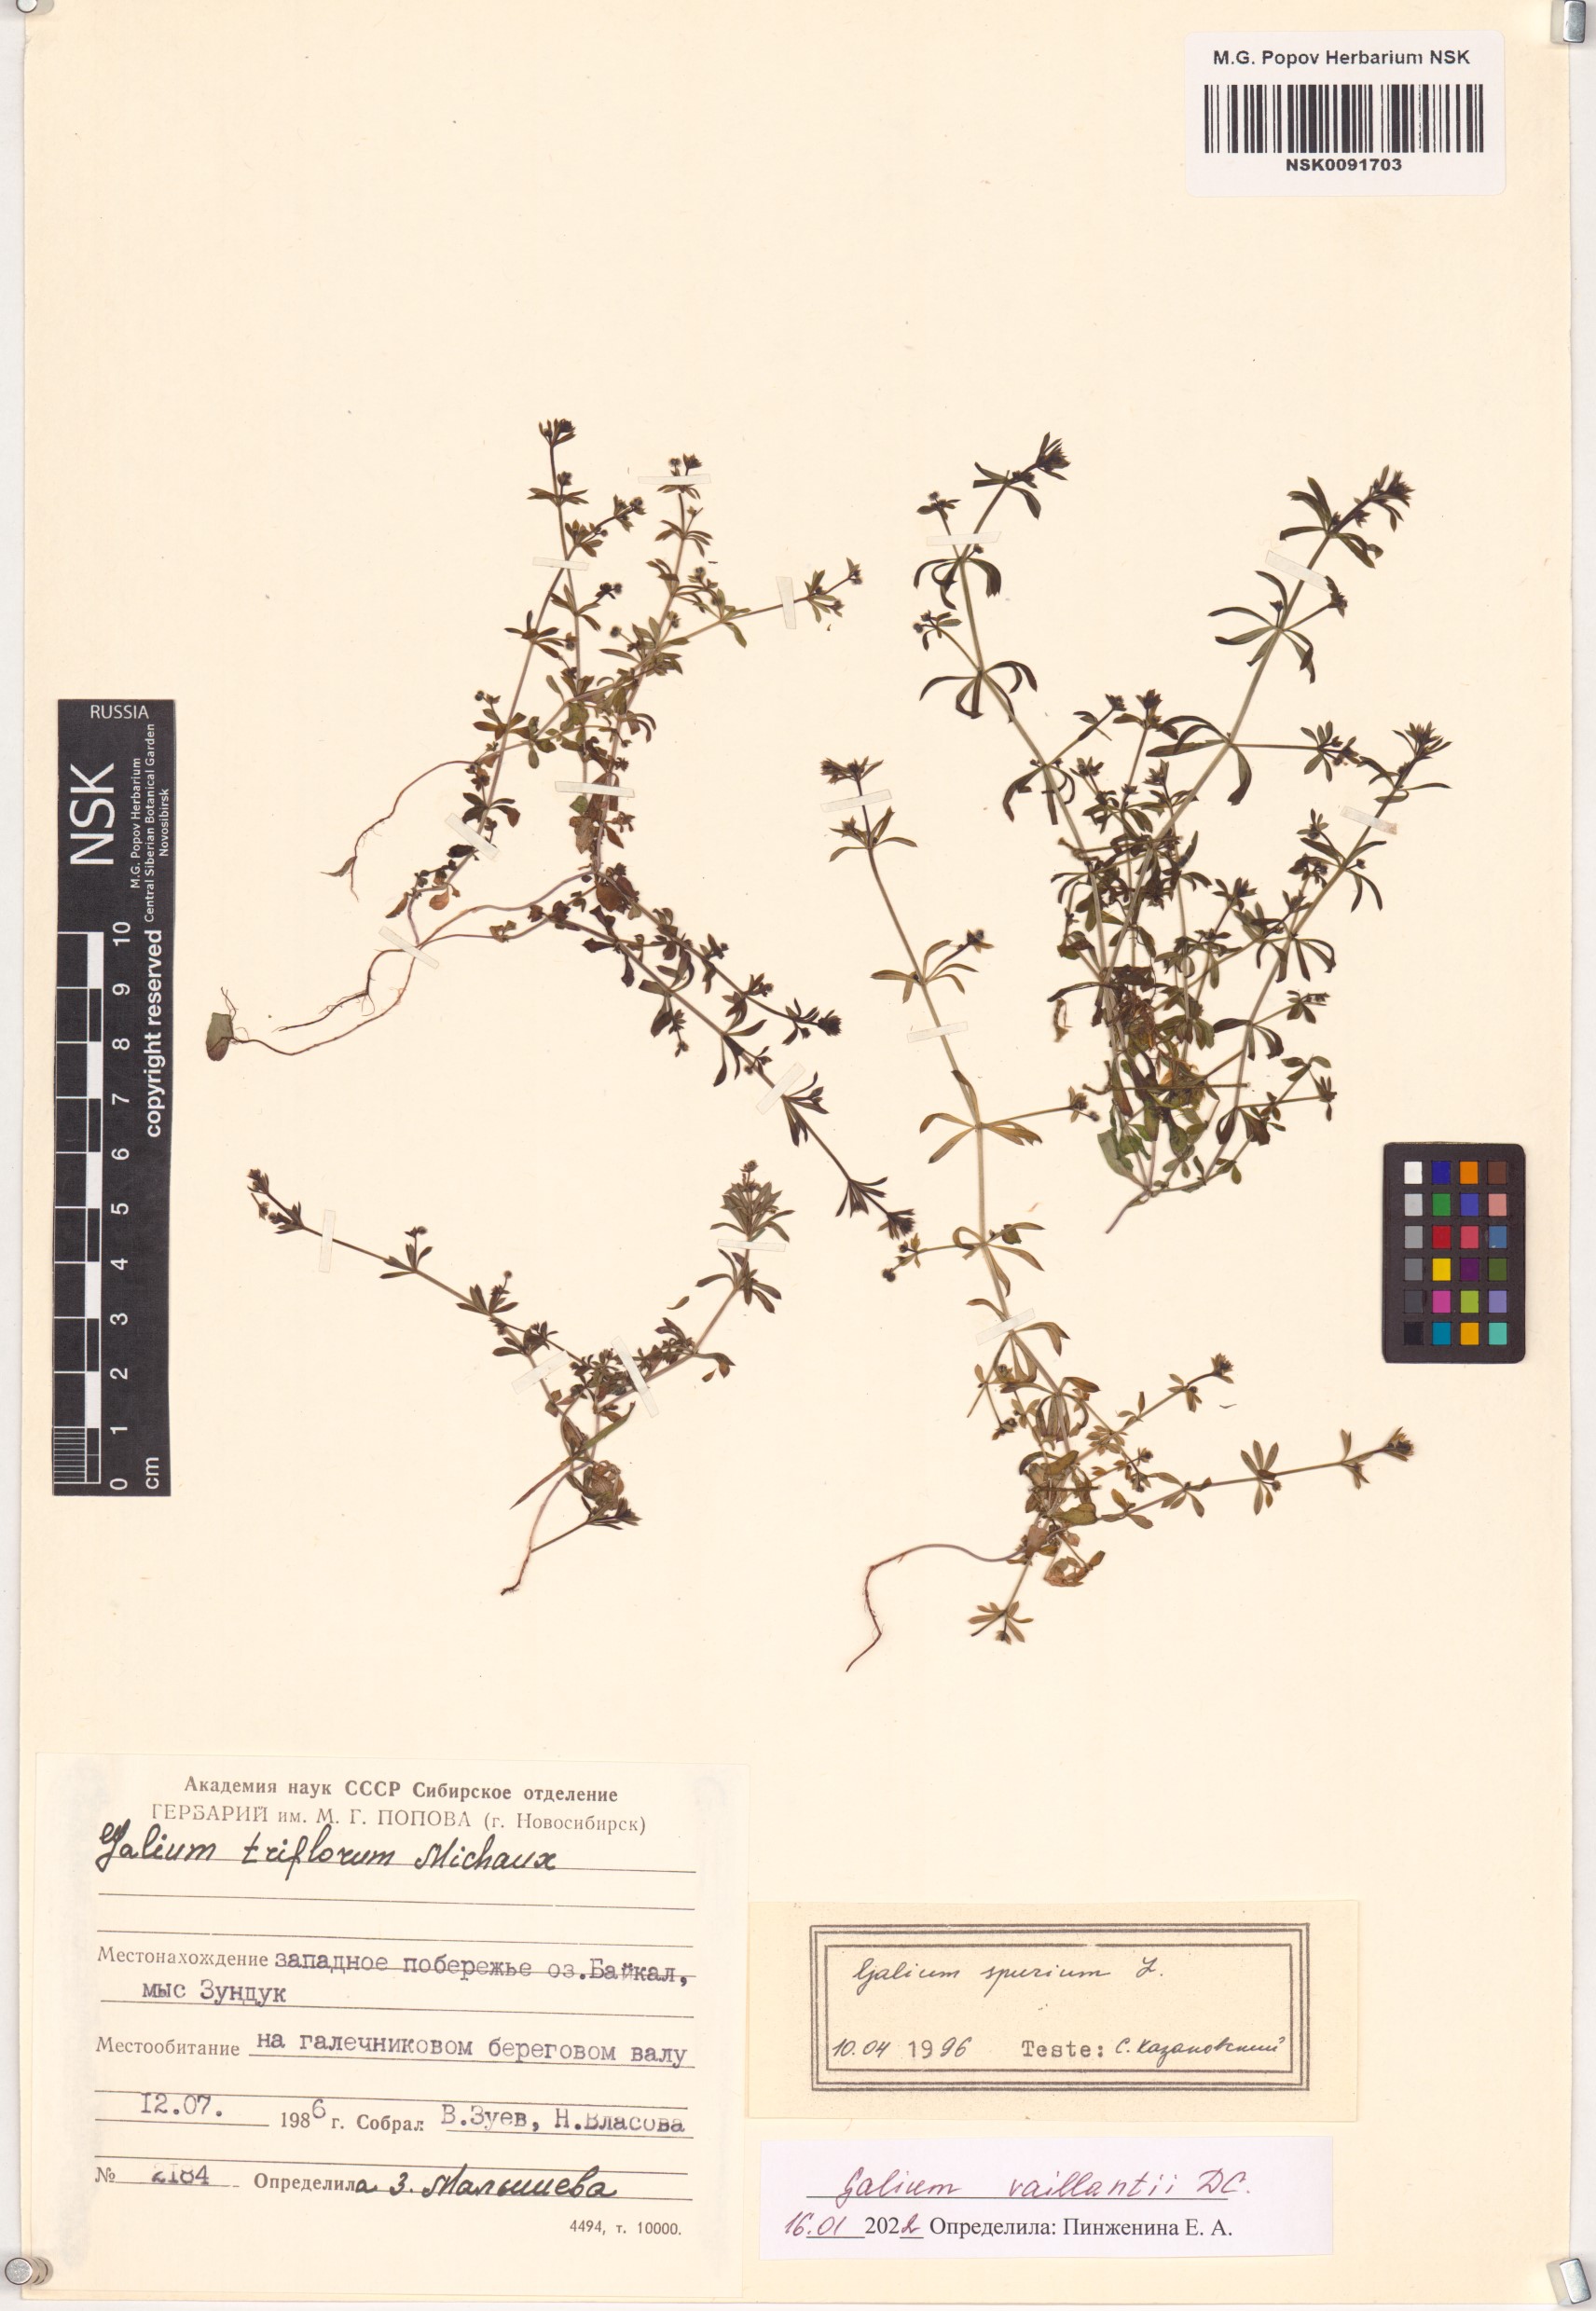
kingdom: Plantae
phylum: Tracheophyta
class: Magnoliopsida
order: Gentianales
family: Rubiaceae
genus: Galium
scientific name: Galium spurium
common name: False cleavers
